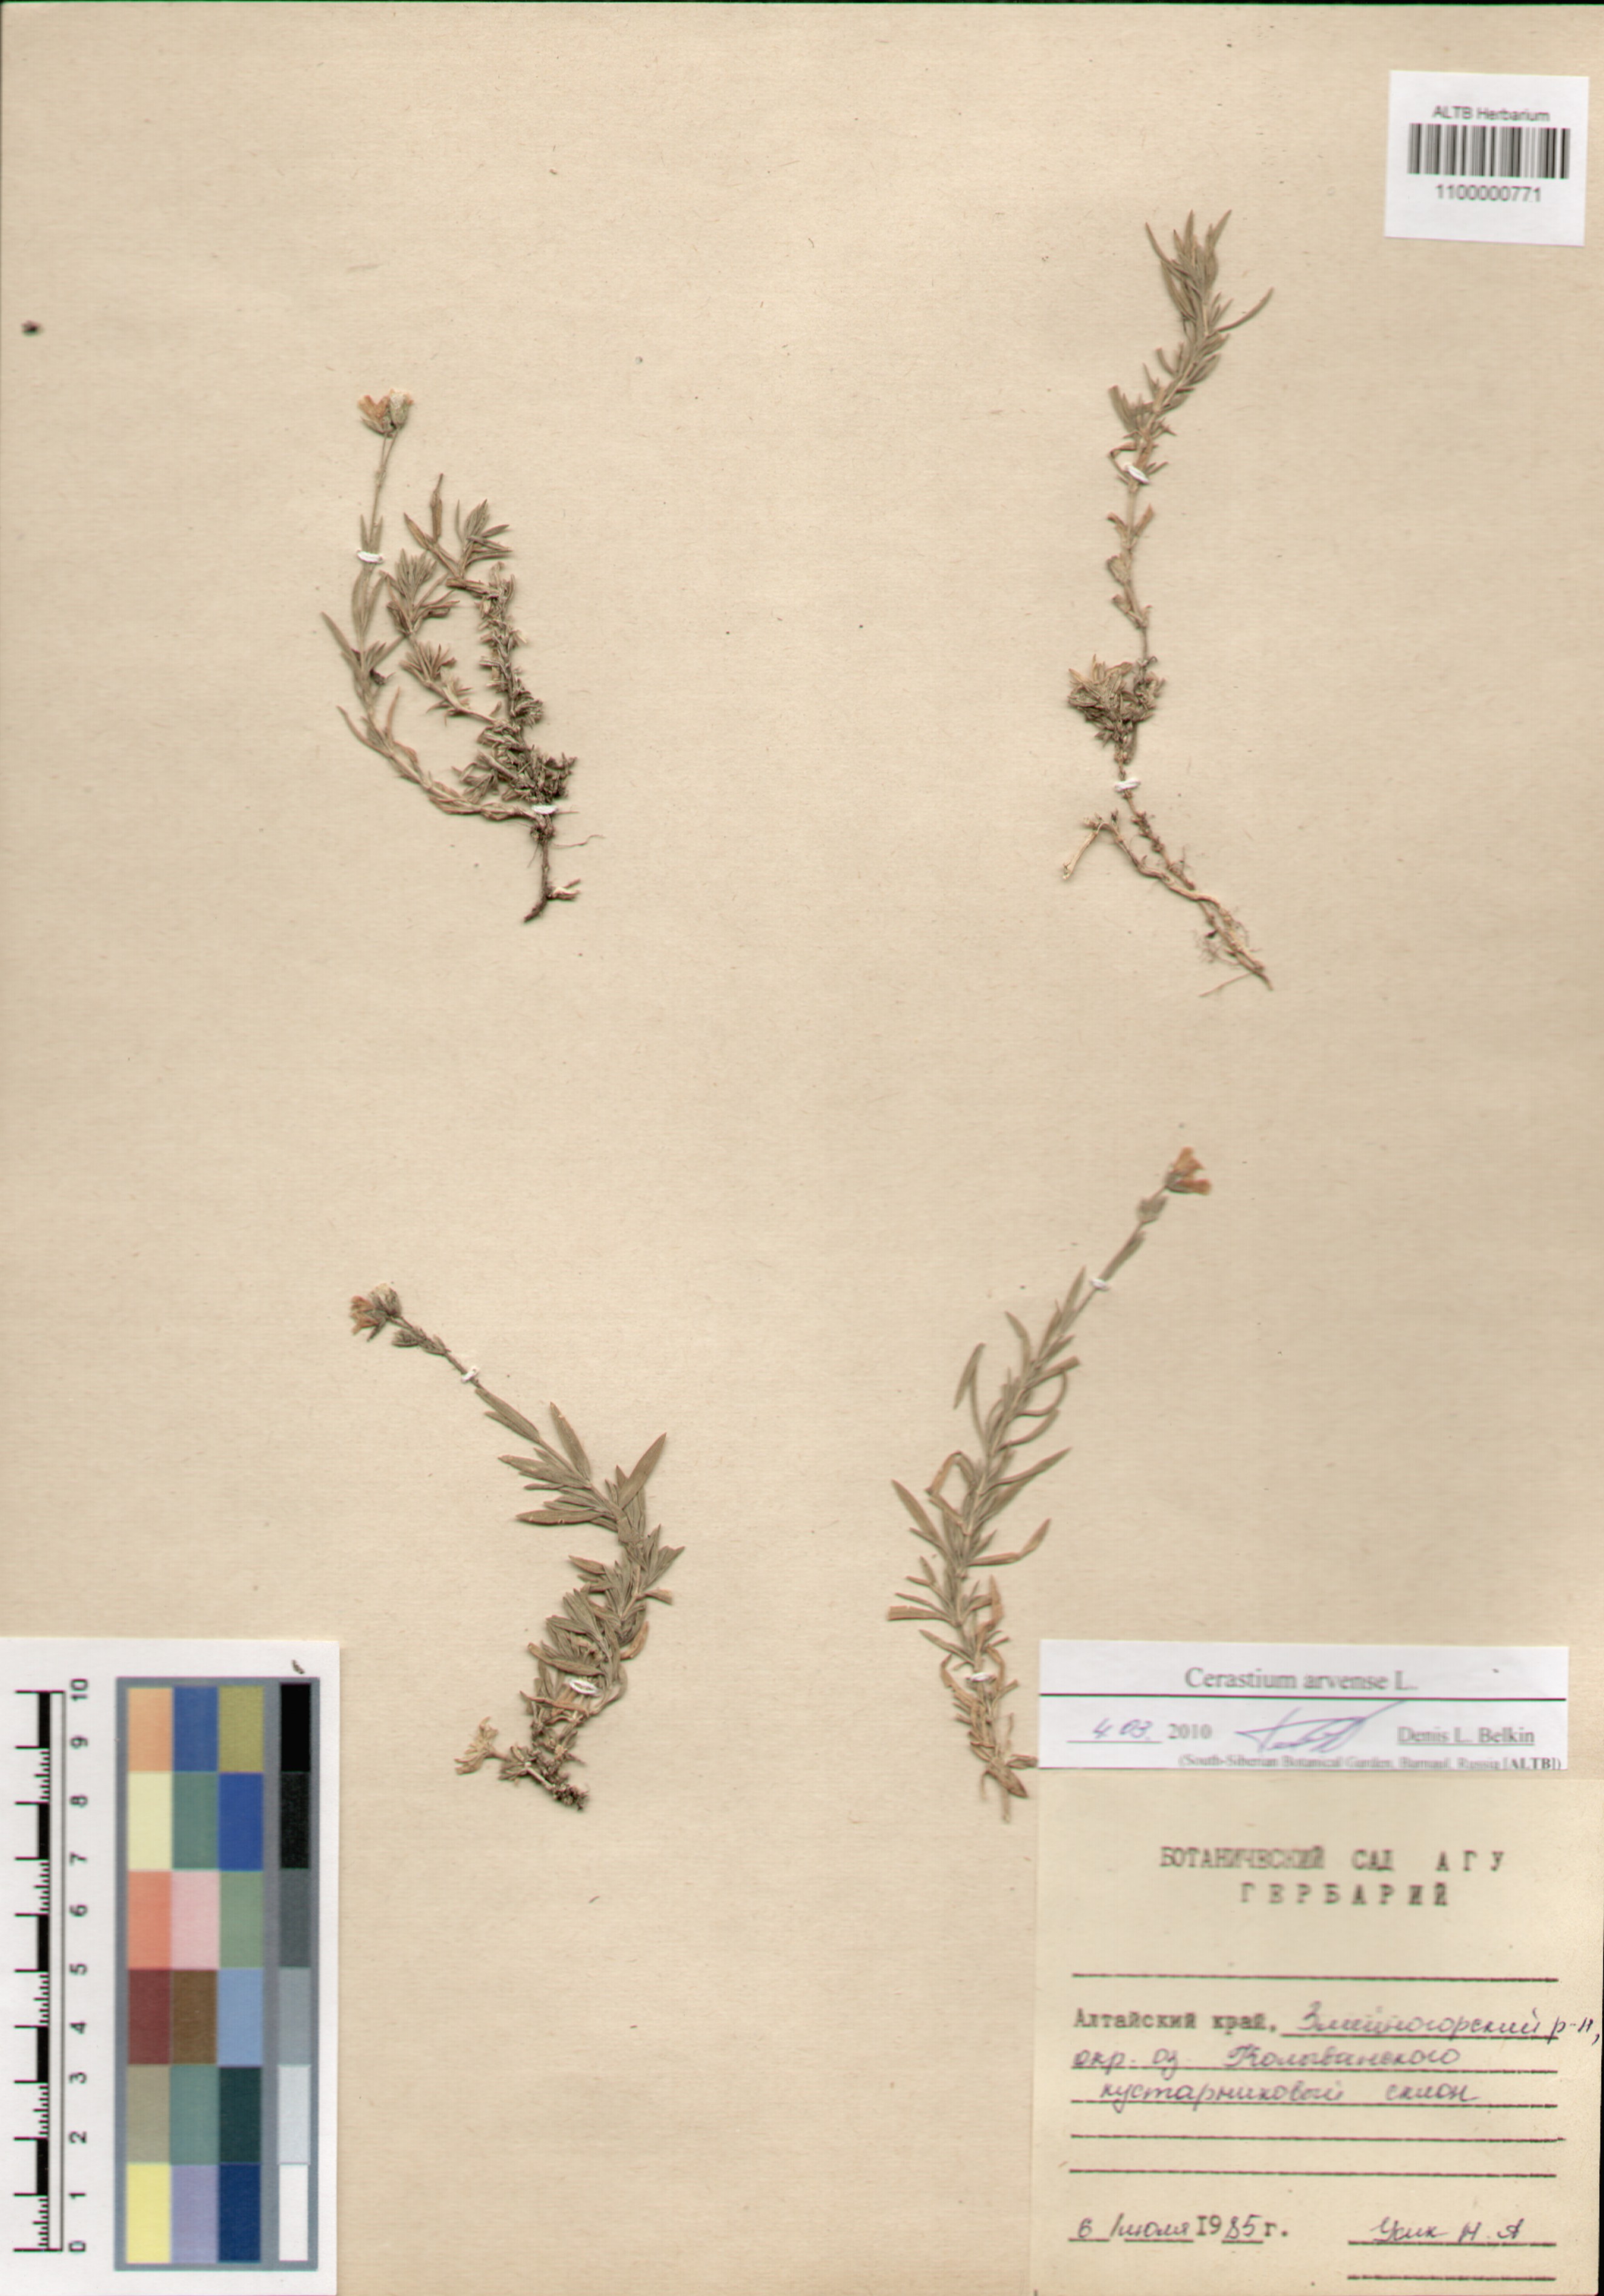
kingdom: Plantae
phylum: Tracheophyta
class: Magnoliopsida
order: Caryophyllales
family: Caryophyllaceae
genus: Cerastium
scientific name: Cerastium arvense
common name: Field mouse-ear
